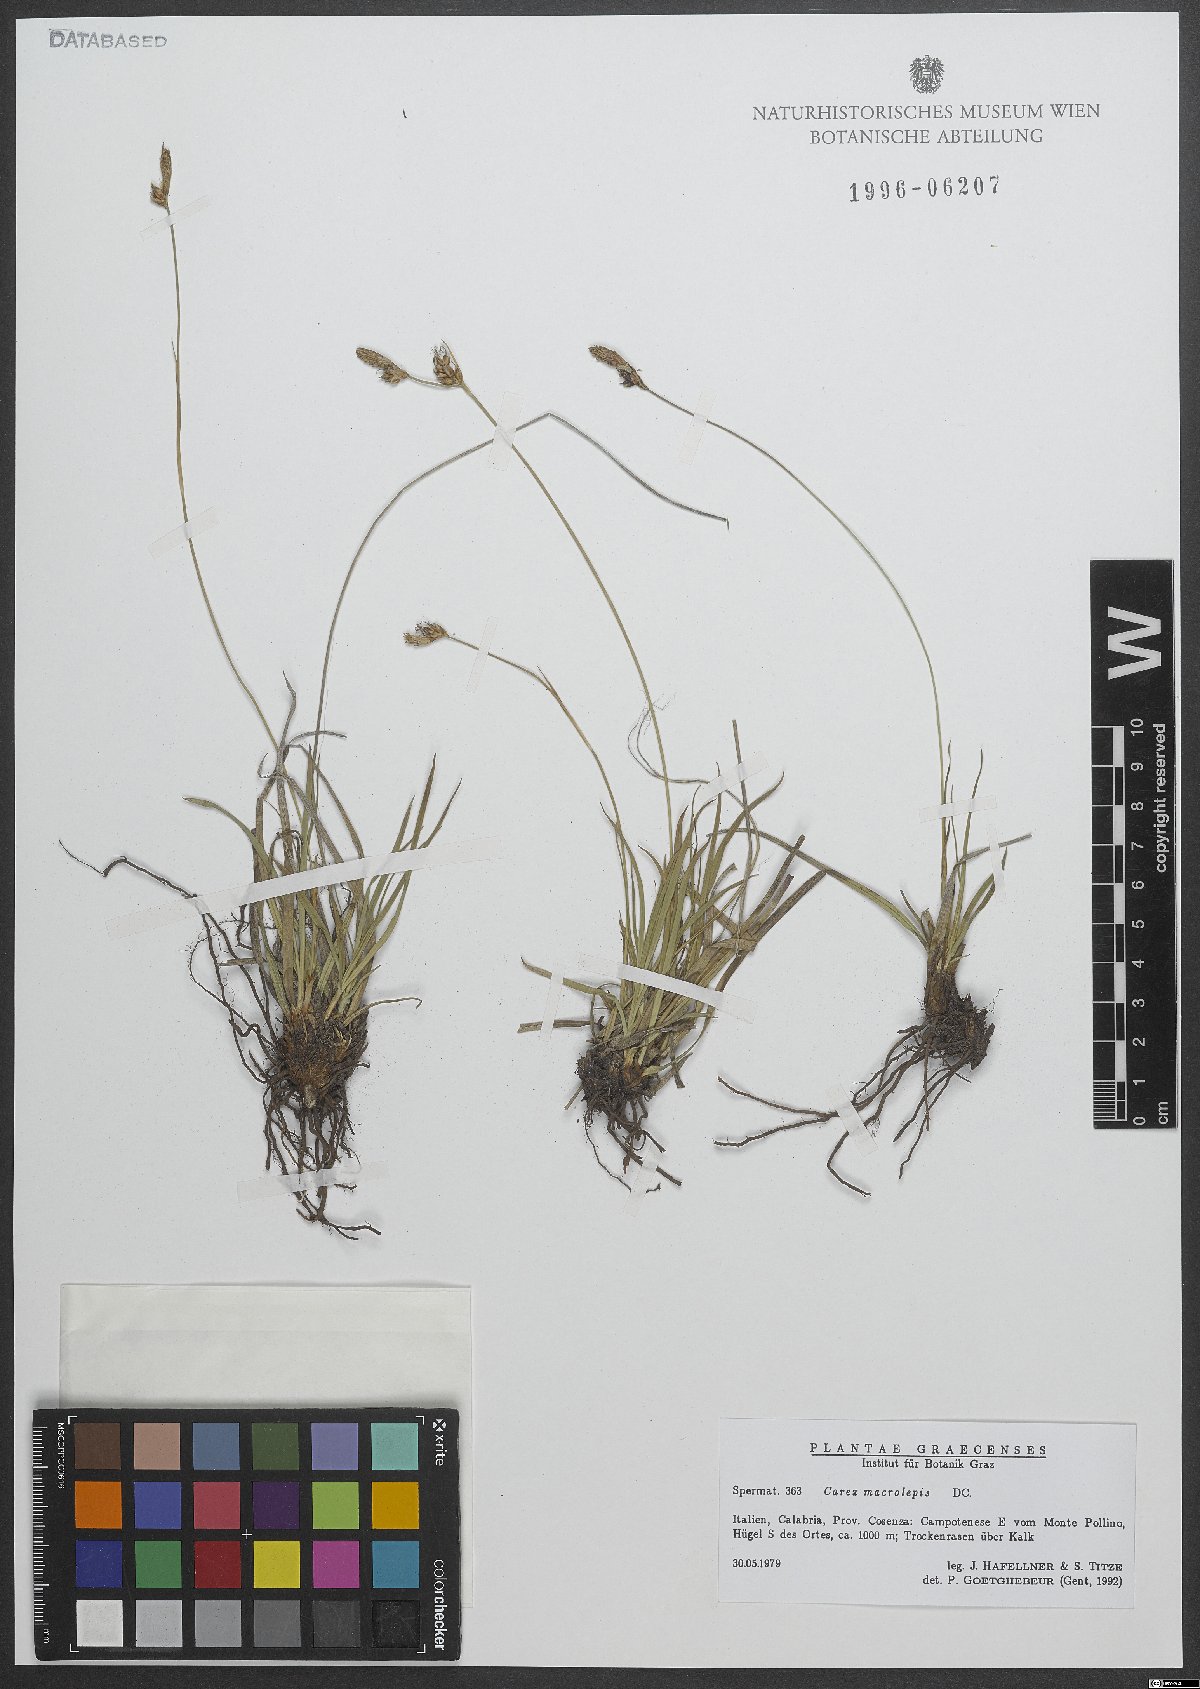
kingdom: Plantae
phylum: Tracheophyta
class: Liliopsida
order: Poales
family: Cyperaceae
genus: Carex
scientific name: Carex macrolepis
